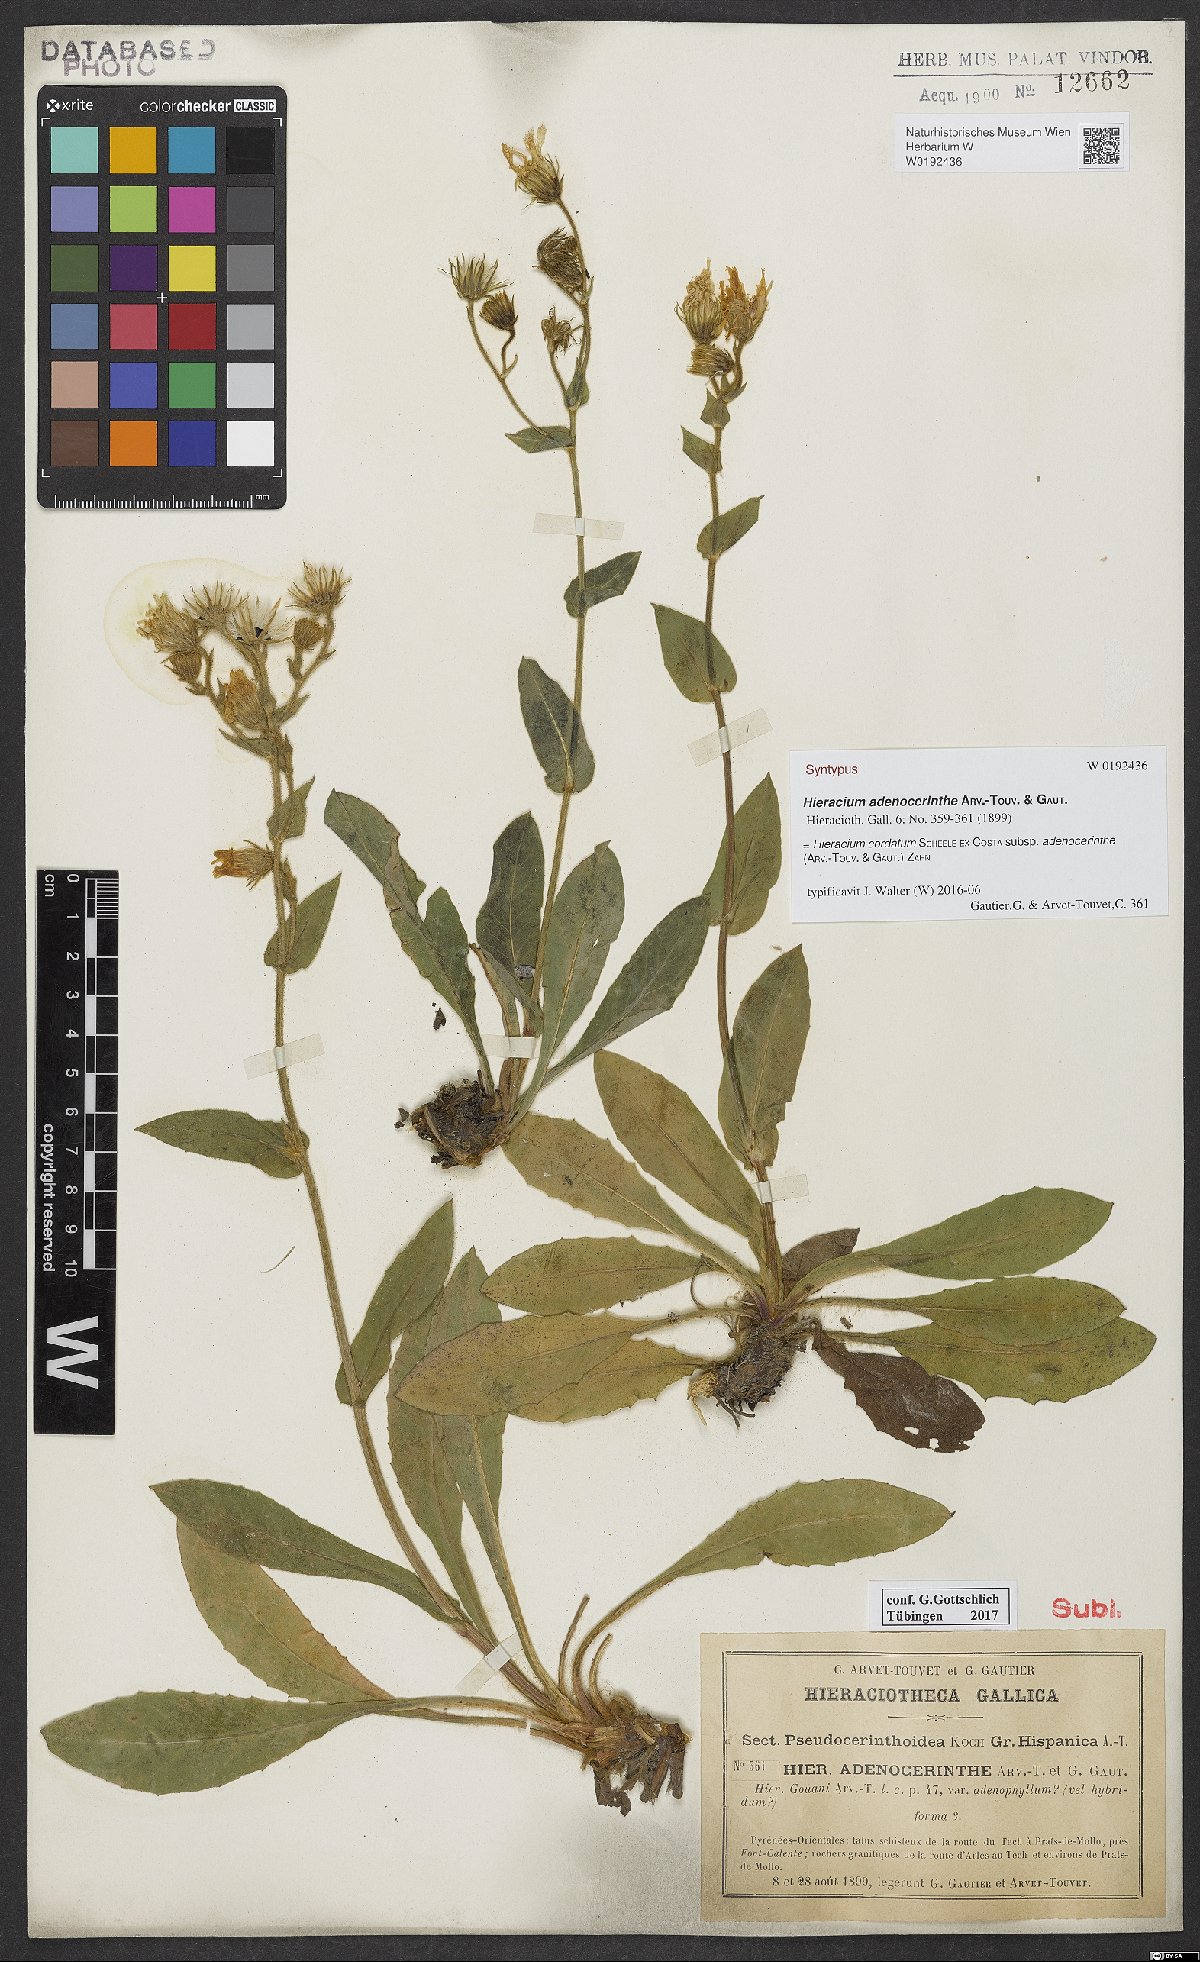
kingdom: Plantae
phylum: Tracheophyta
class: Magnoliopsida
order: Asterales
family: Asteraceae
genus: Hieracium
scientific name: Hieracium gouanii
